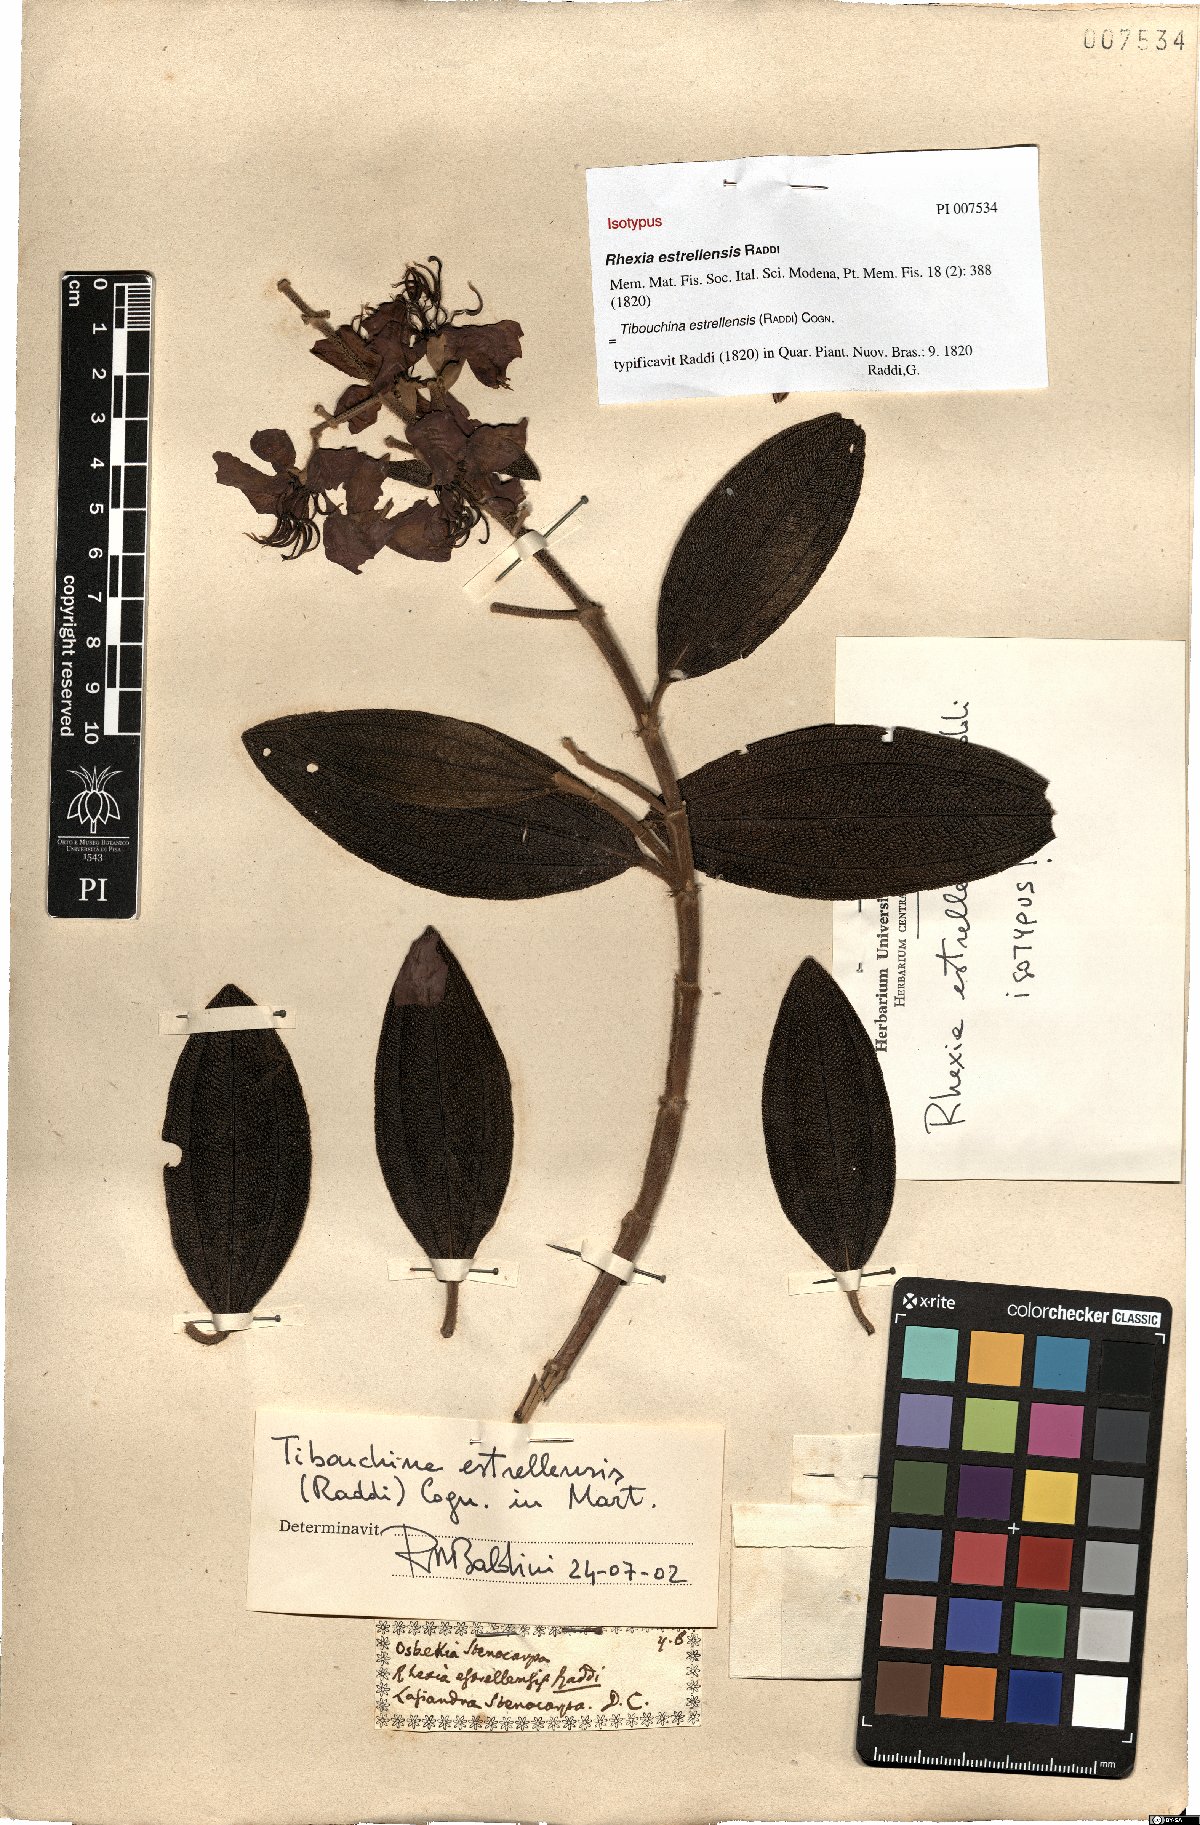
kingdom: Plantae
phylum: Tracheophyta
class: Magnoliopsida
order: Myrtales
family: Melastomataceae
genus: Pleroma
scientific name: Pleroma estrellense
